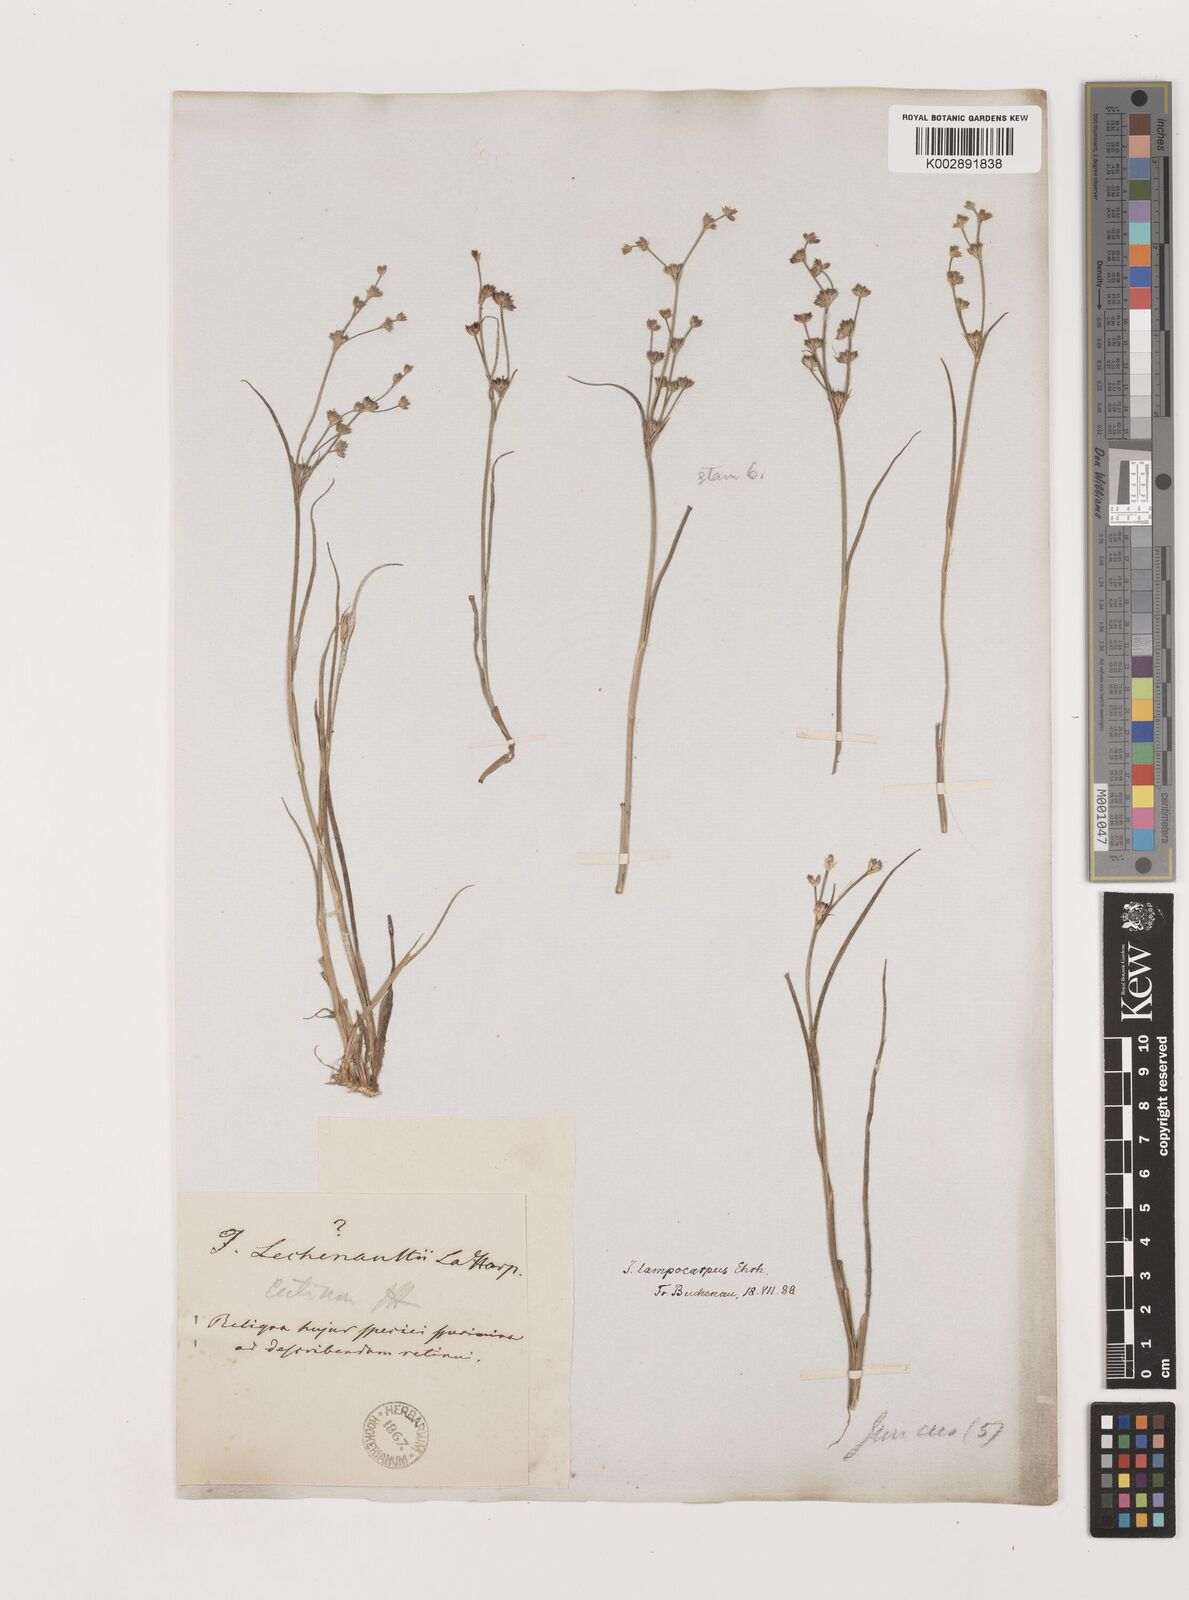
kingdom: Plantae
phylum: Tracheophyta
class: Liliopsida
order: Poales
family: Juncaceae
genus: Juncus
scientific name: Juncus articulatus
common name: Jointed rush
